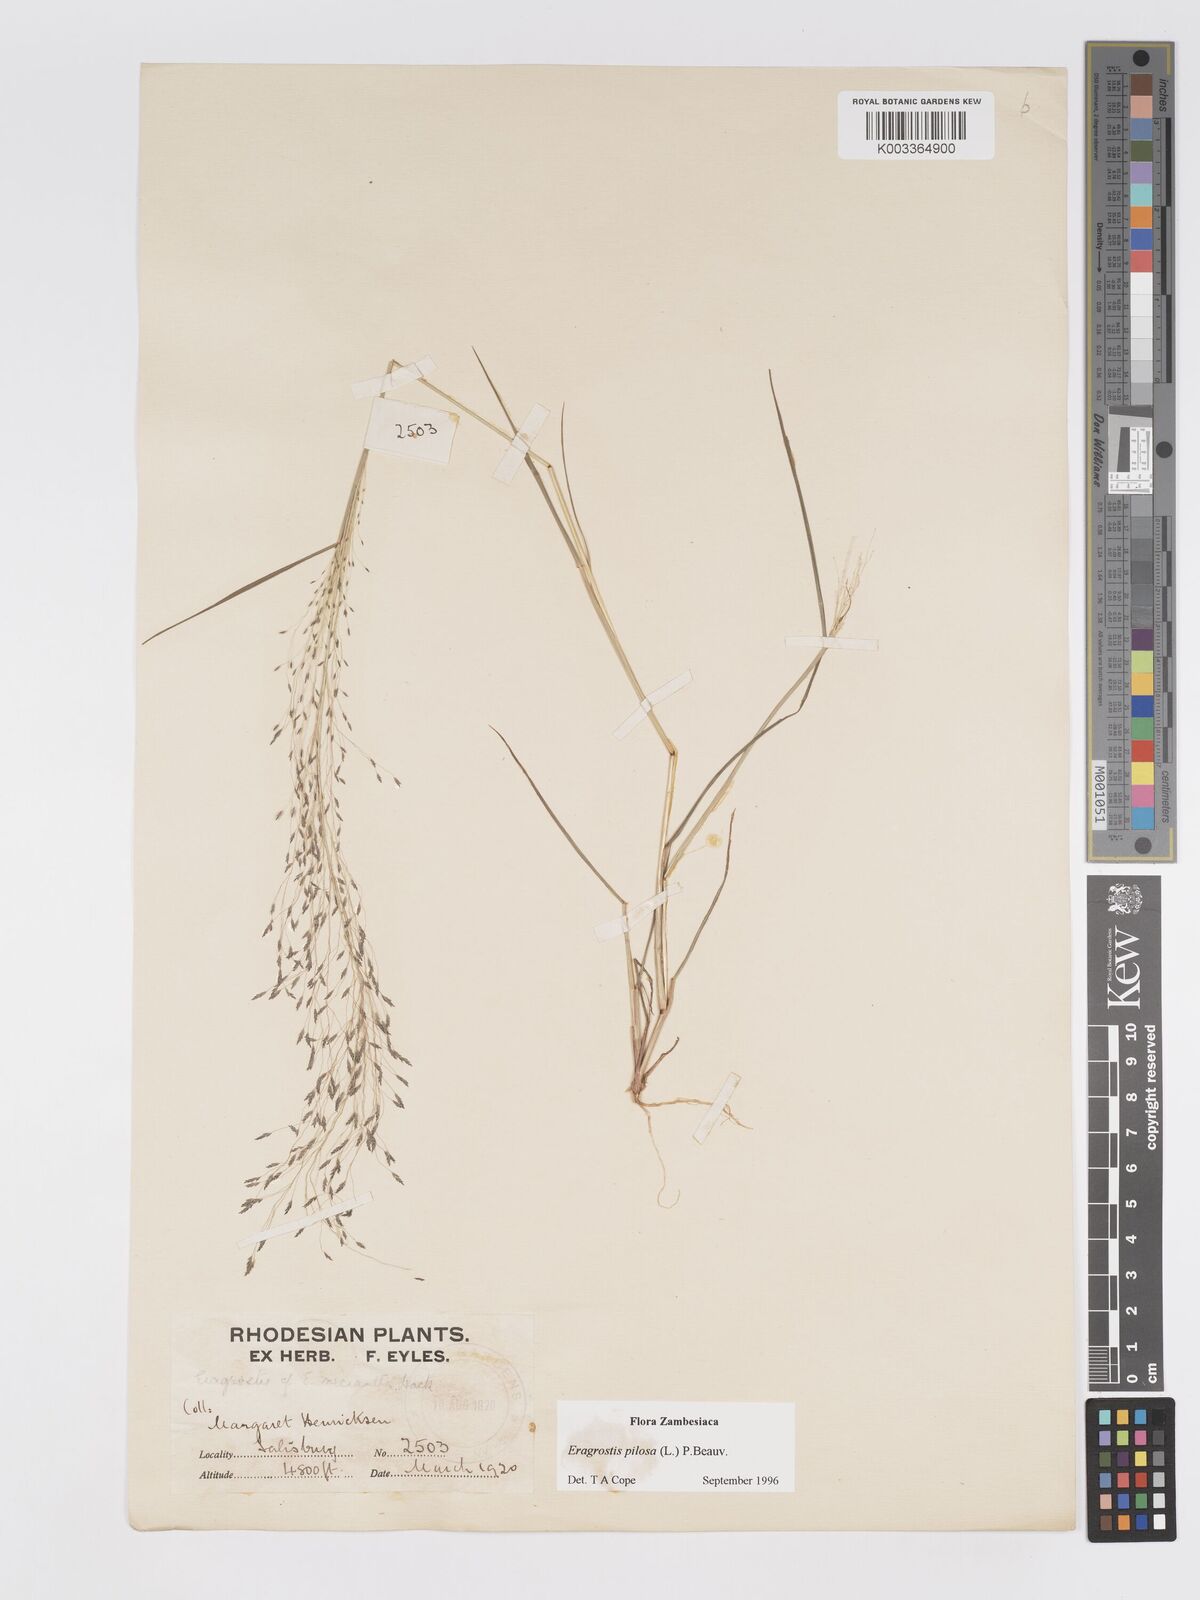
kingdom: Plantae
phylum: Tracheophyta
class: Liliopsida
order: Poales
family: Poaceae
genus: Eragrostis
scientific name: Eragrostis pilosa
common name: Indian lovegrass
